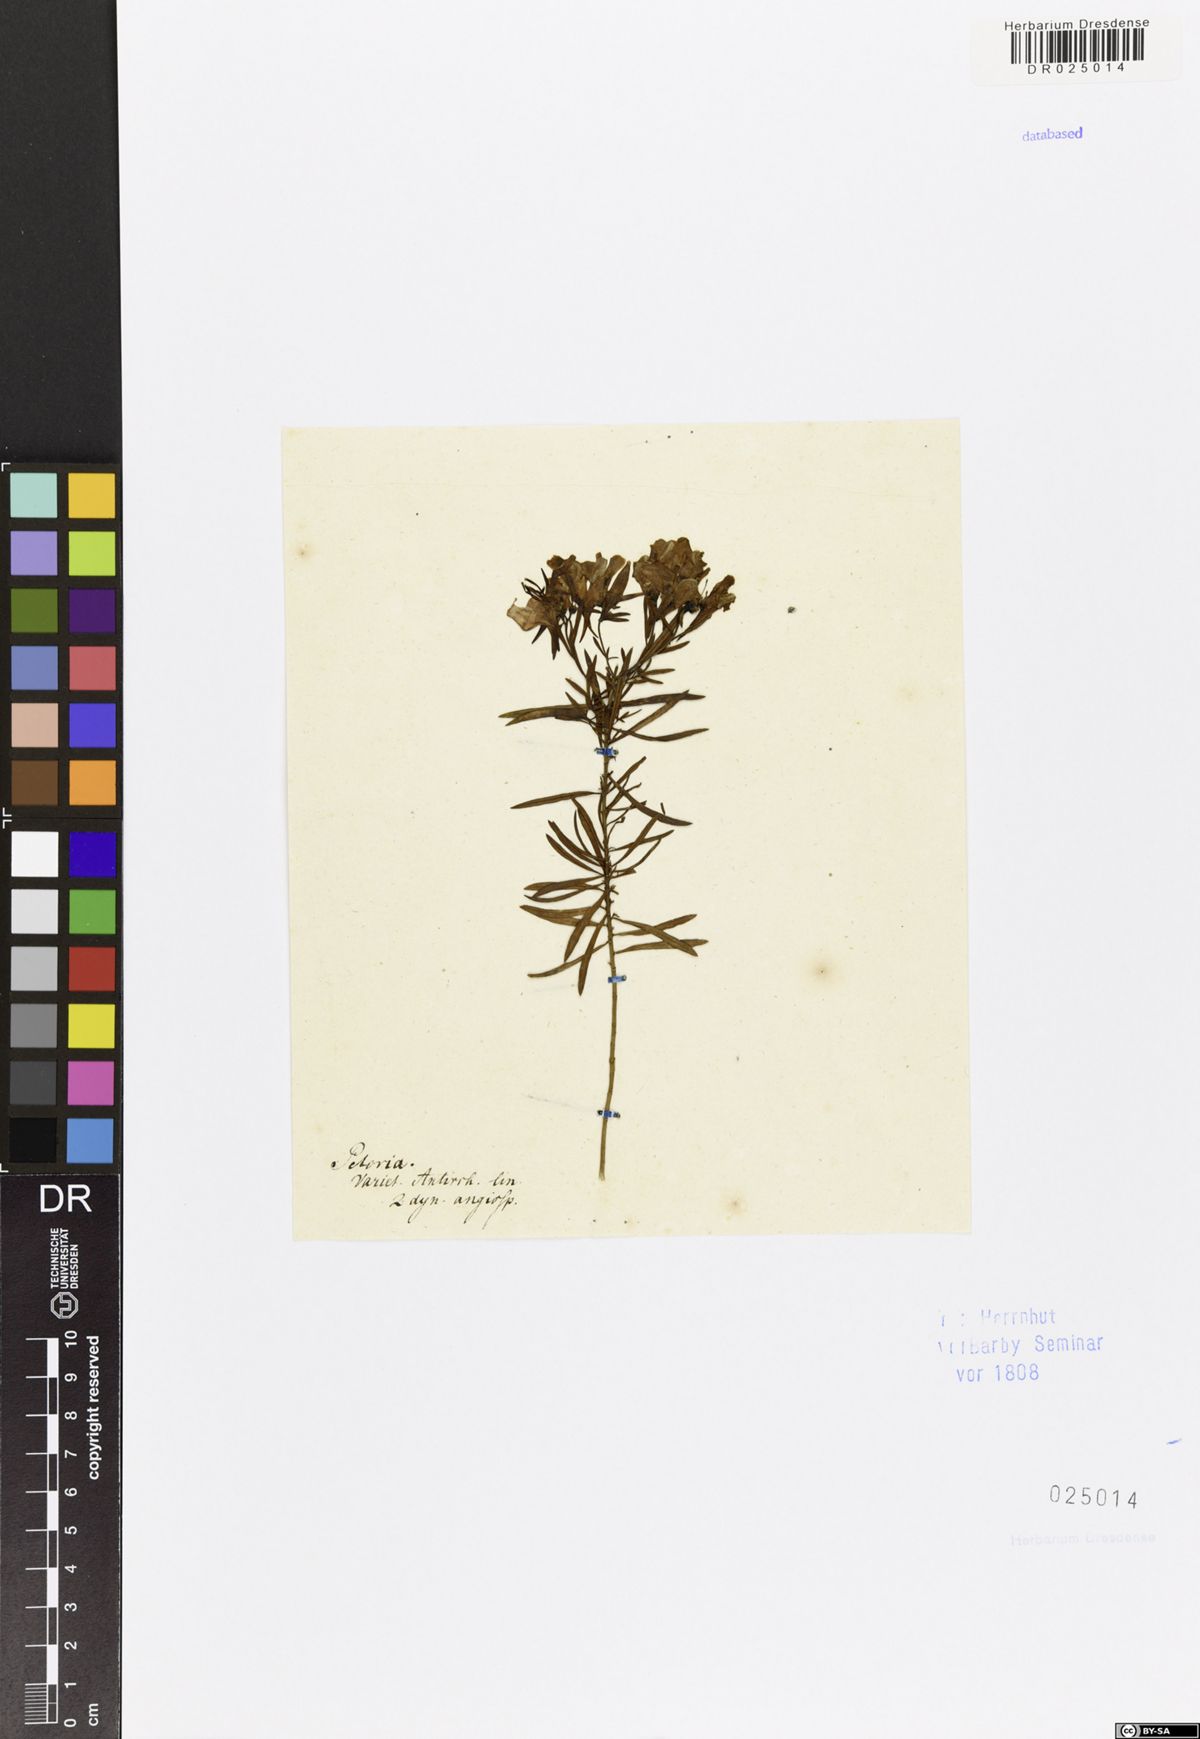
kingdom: Plantae
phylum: Tracheophyta
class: Magnoliopsida
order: Lamiales
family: Plantaginaceae
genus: Linaria
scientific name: Linaria vulgaris
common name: Butter and eggs
